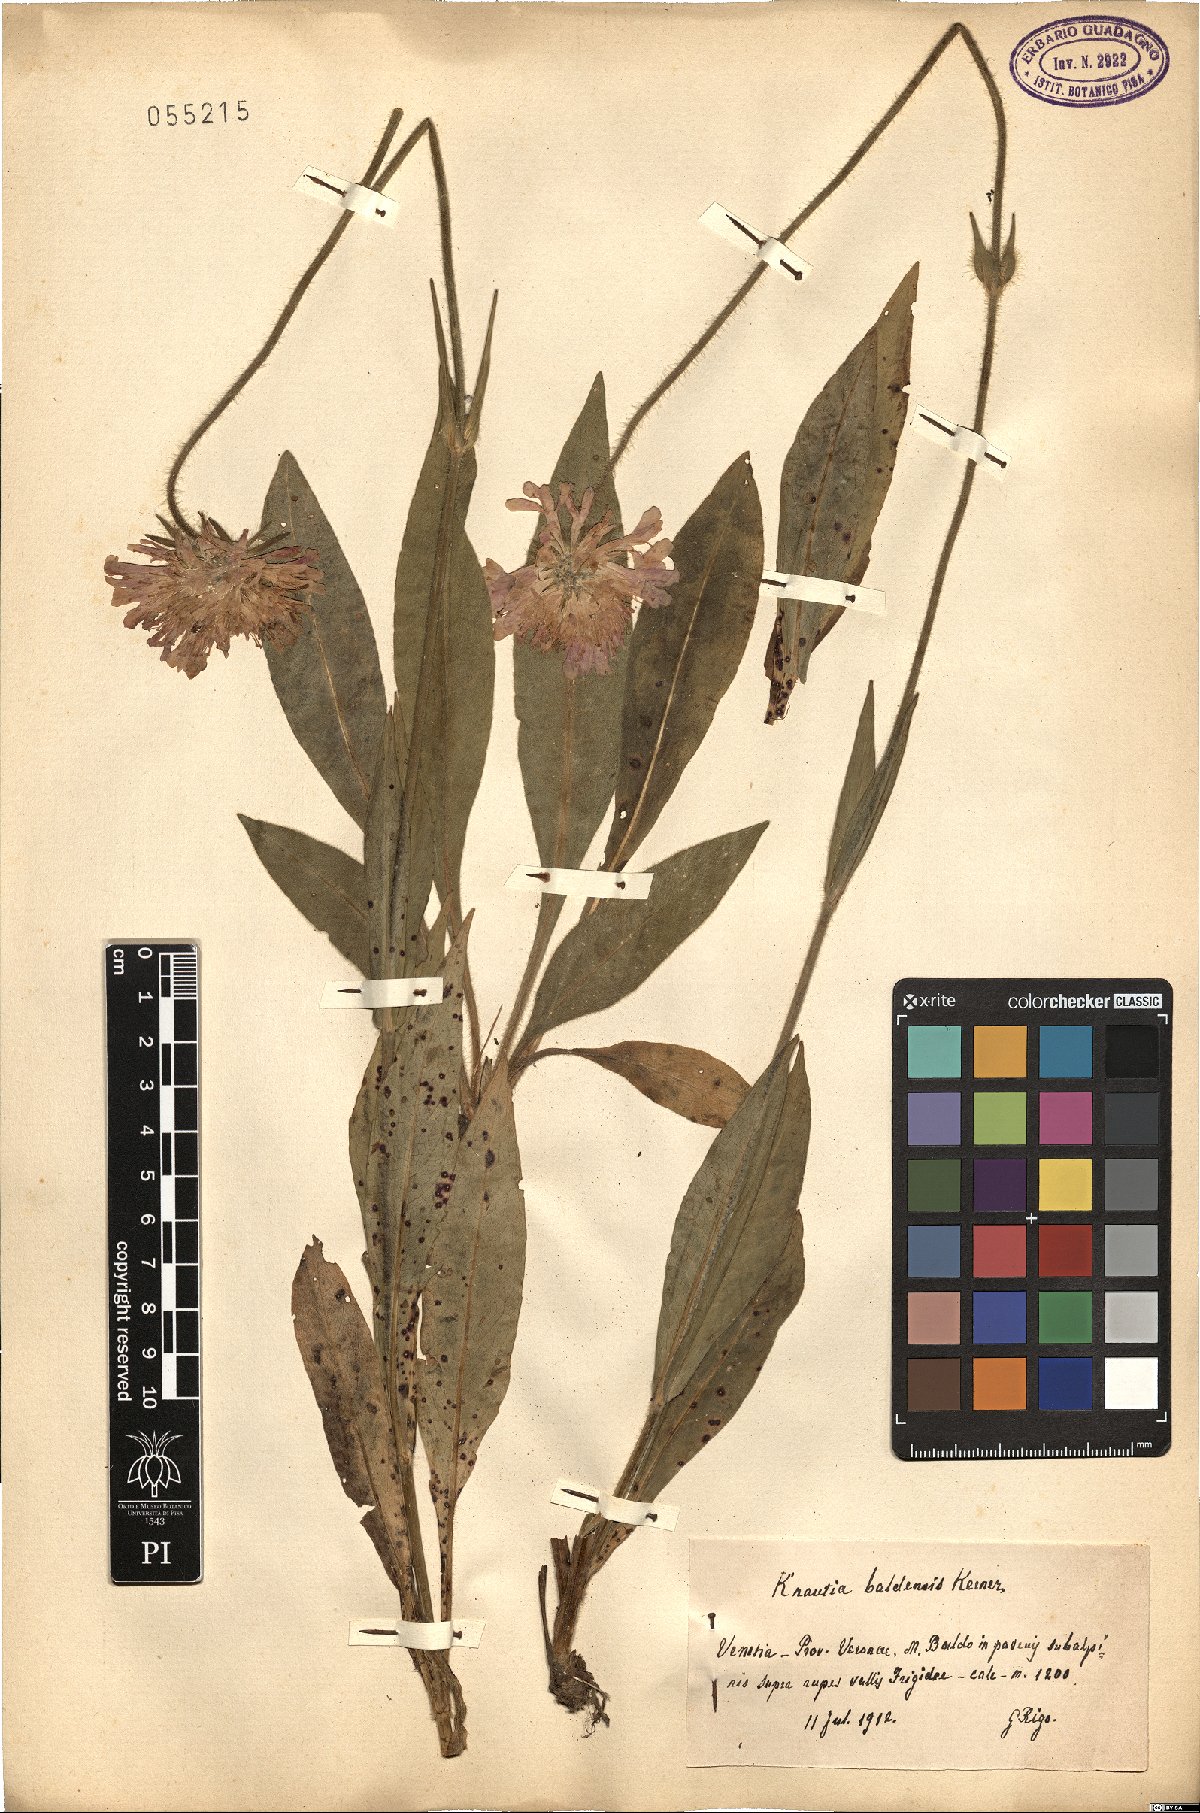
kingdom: Plantae
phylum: Tracheophyta
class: Magnoliopsida
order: Dipsacales
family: Caprifoliaceae
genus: Knautia
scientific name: Knautia baldensis
